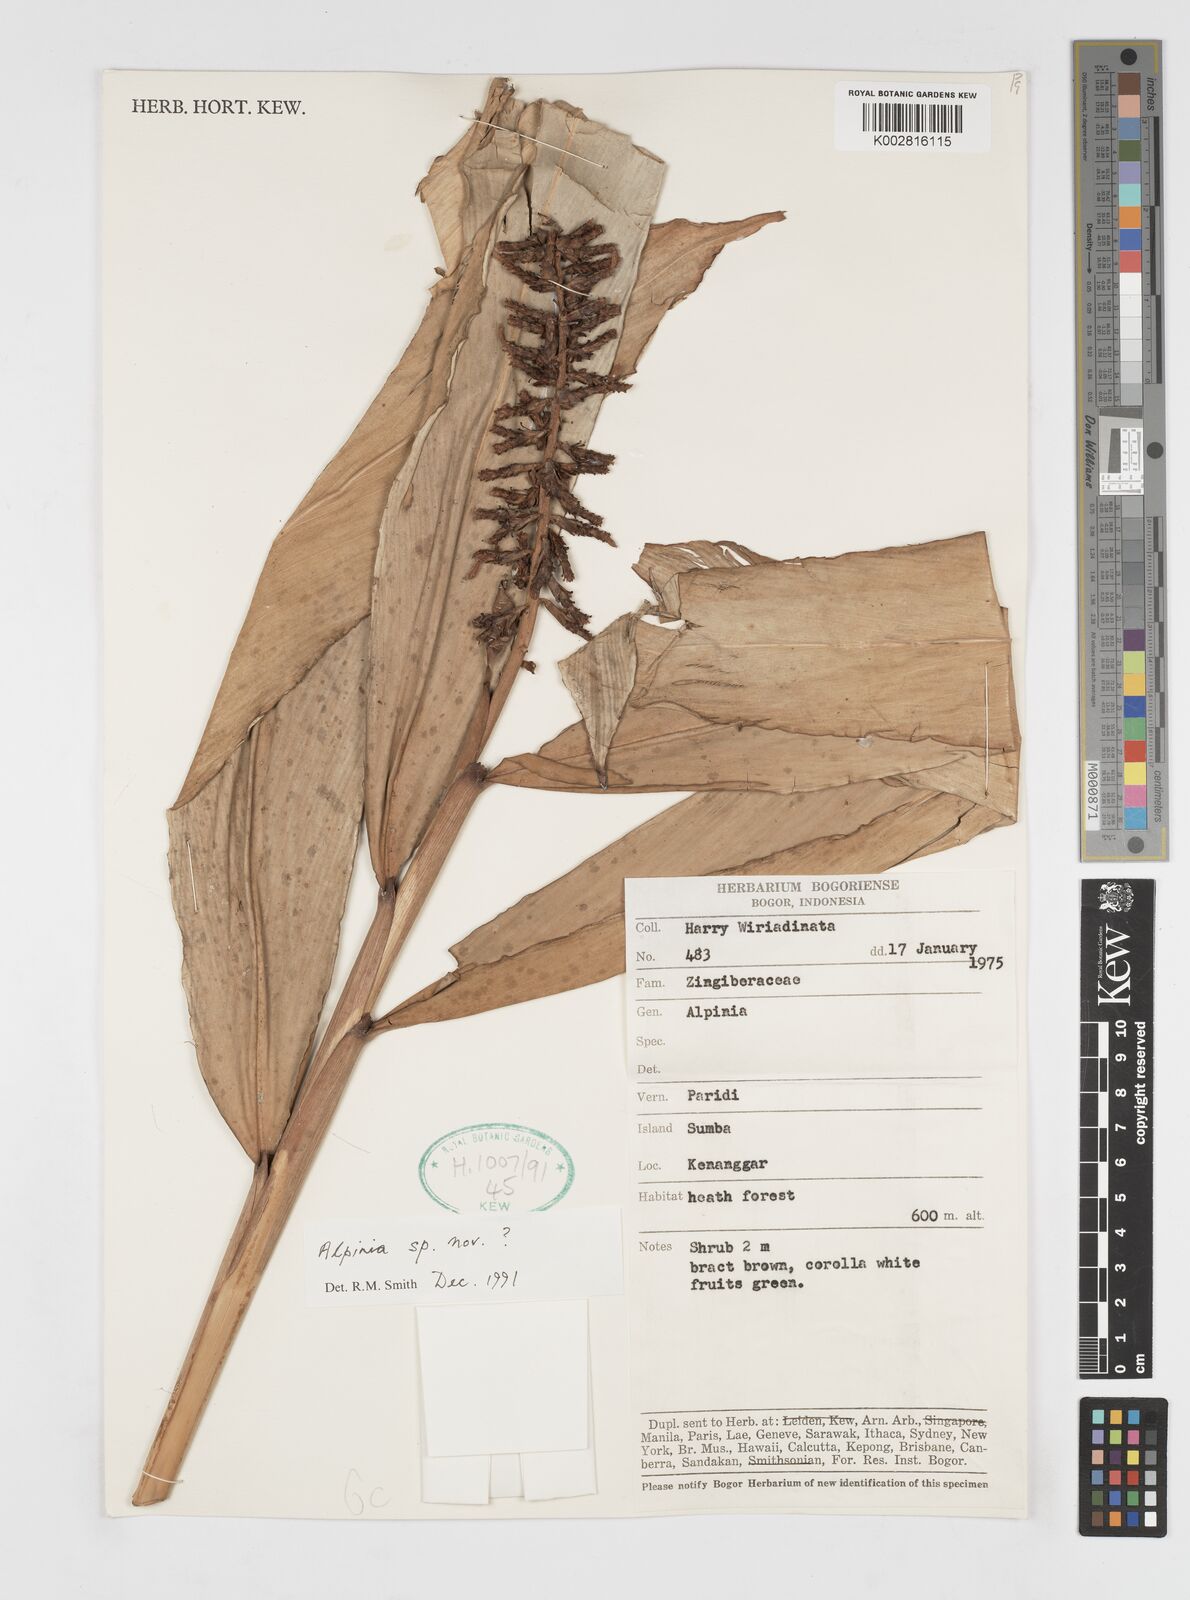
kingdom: Plantae
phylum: Tracheophyta
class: Liliopsida
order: Zingiberales
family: Zingiberaceae
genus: Alpinia
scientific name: Alpinia
